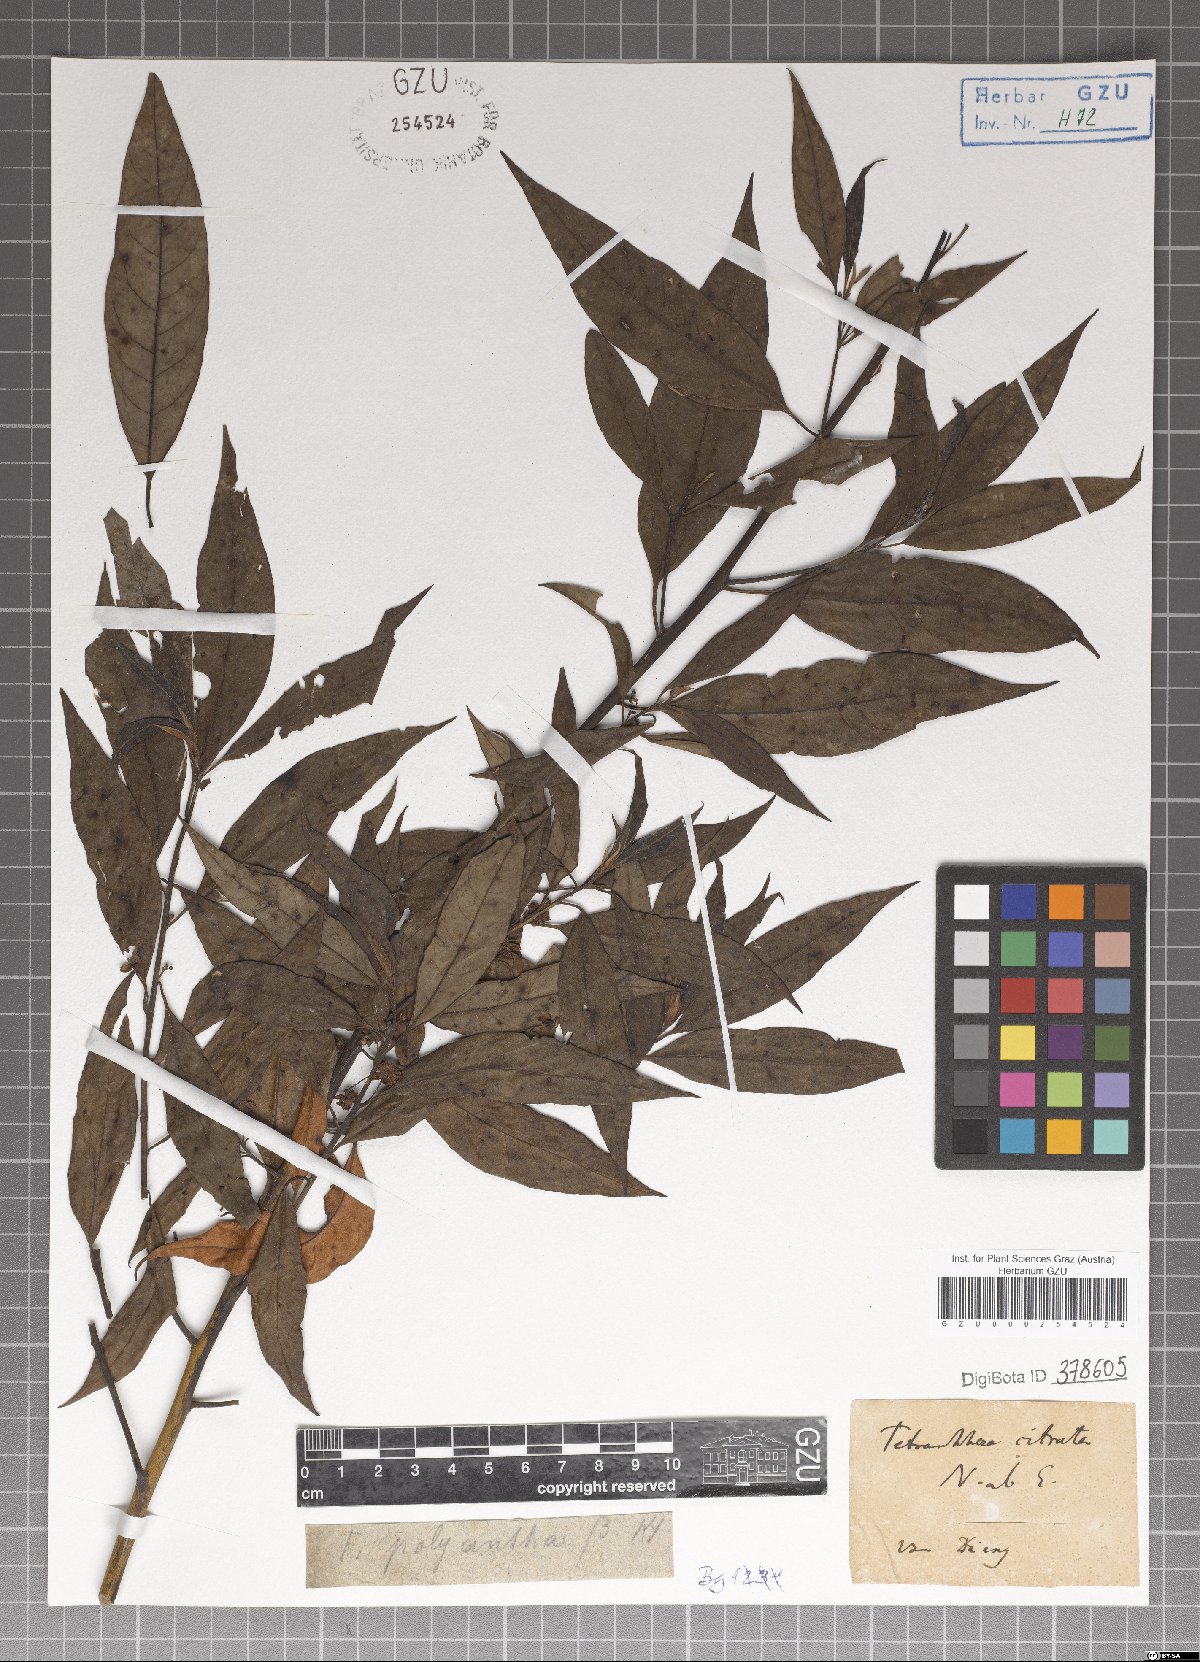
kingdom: Plantae
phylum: Tracheophyta
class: Magnoliopsida
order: Laurales
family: Lauraceae
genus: Litsea
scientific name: Litsea cubeba
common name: Mountain-pepper
